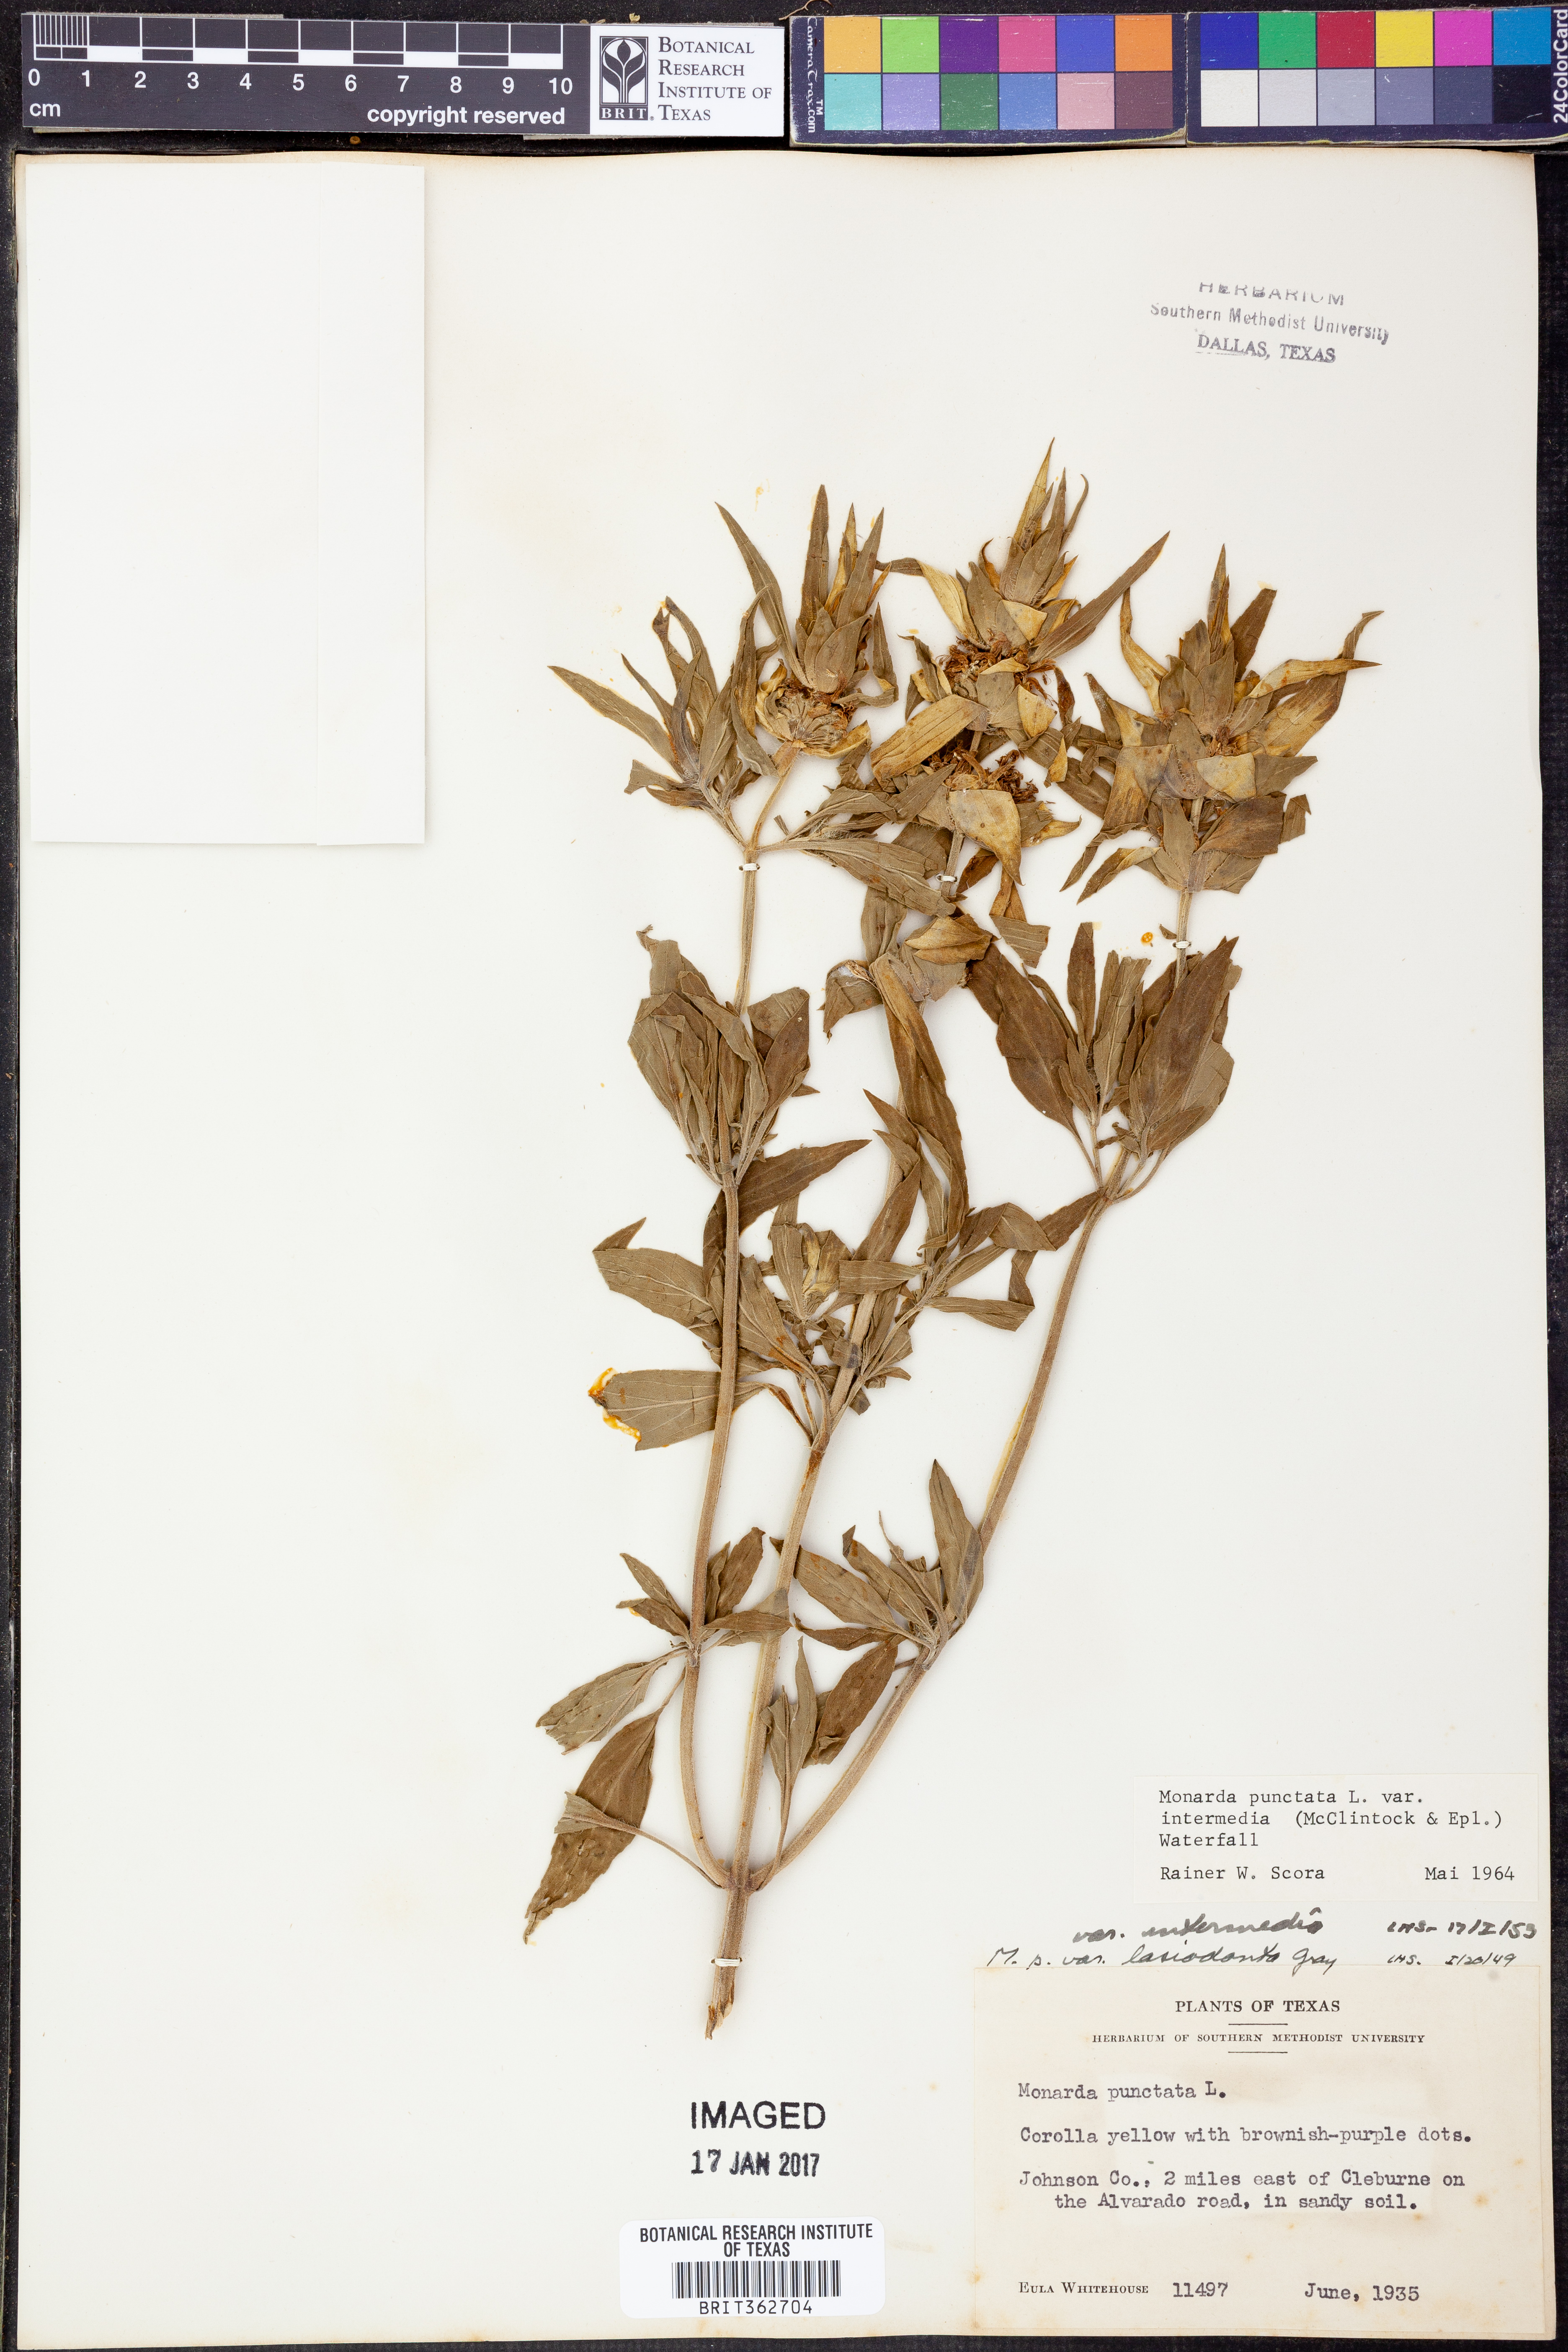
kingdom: Plantae
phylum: Tracheophyta
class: Magnoliopsida
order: Lamiales
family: Lamiaceae
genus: Monarda
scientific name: Monarda punctata
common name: Dotted monarda
